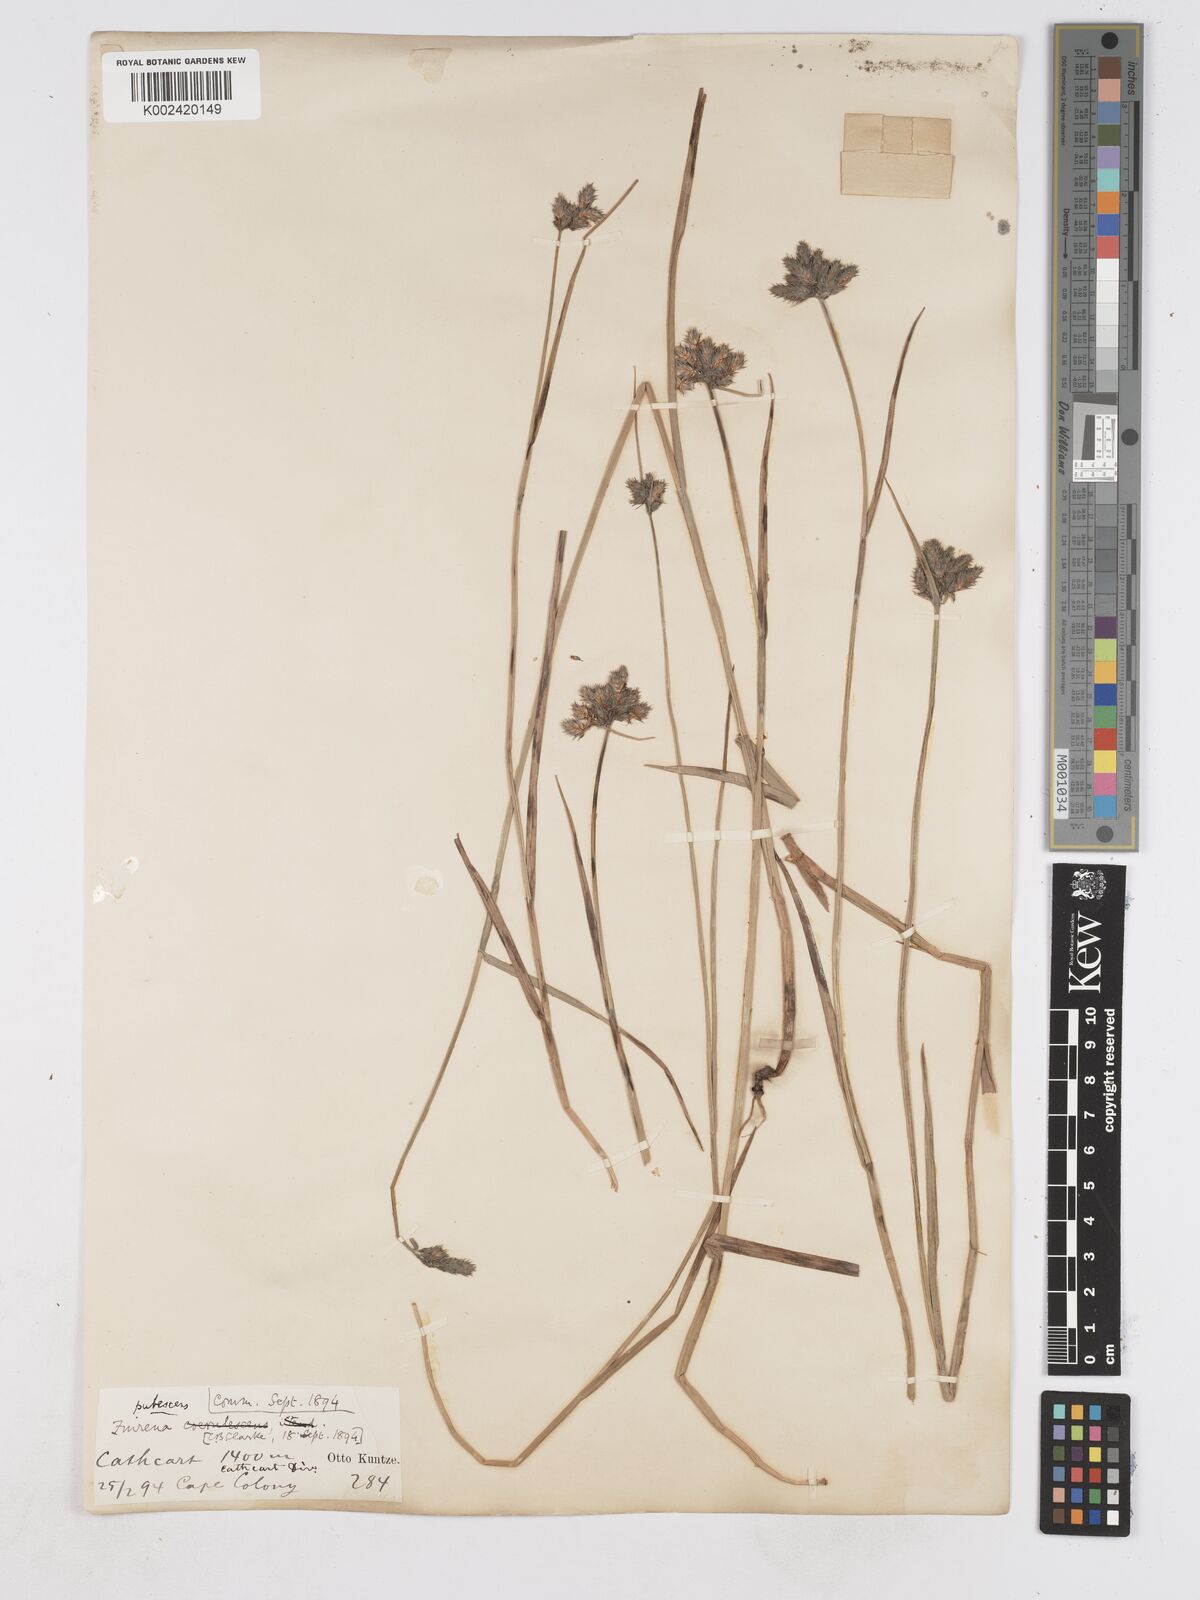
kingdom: Plantae
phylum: Tracheophyta
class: Liliopsida
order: Poales
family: Cyperaceae
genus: Fuirena
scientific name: Fuirena pubescens
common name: Hairy sedge
